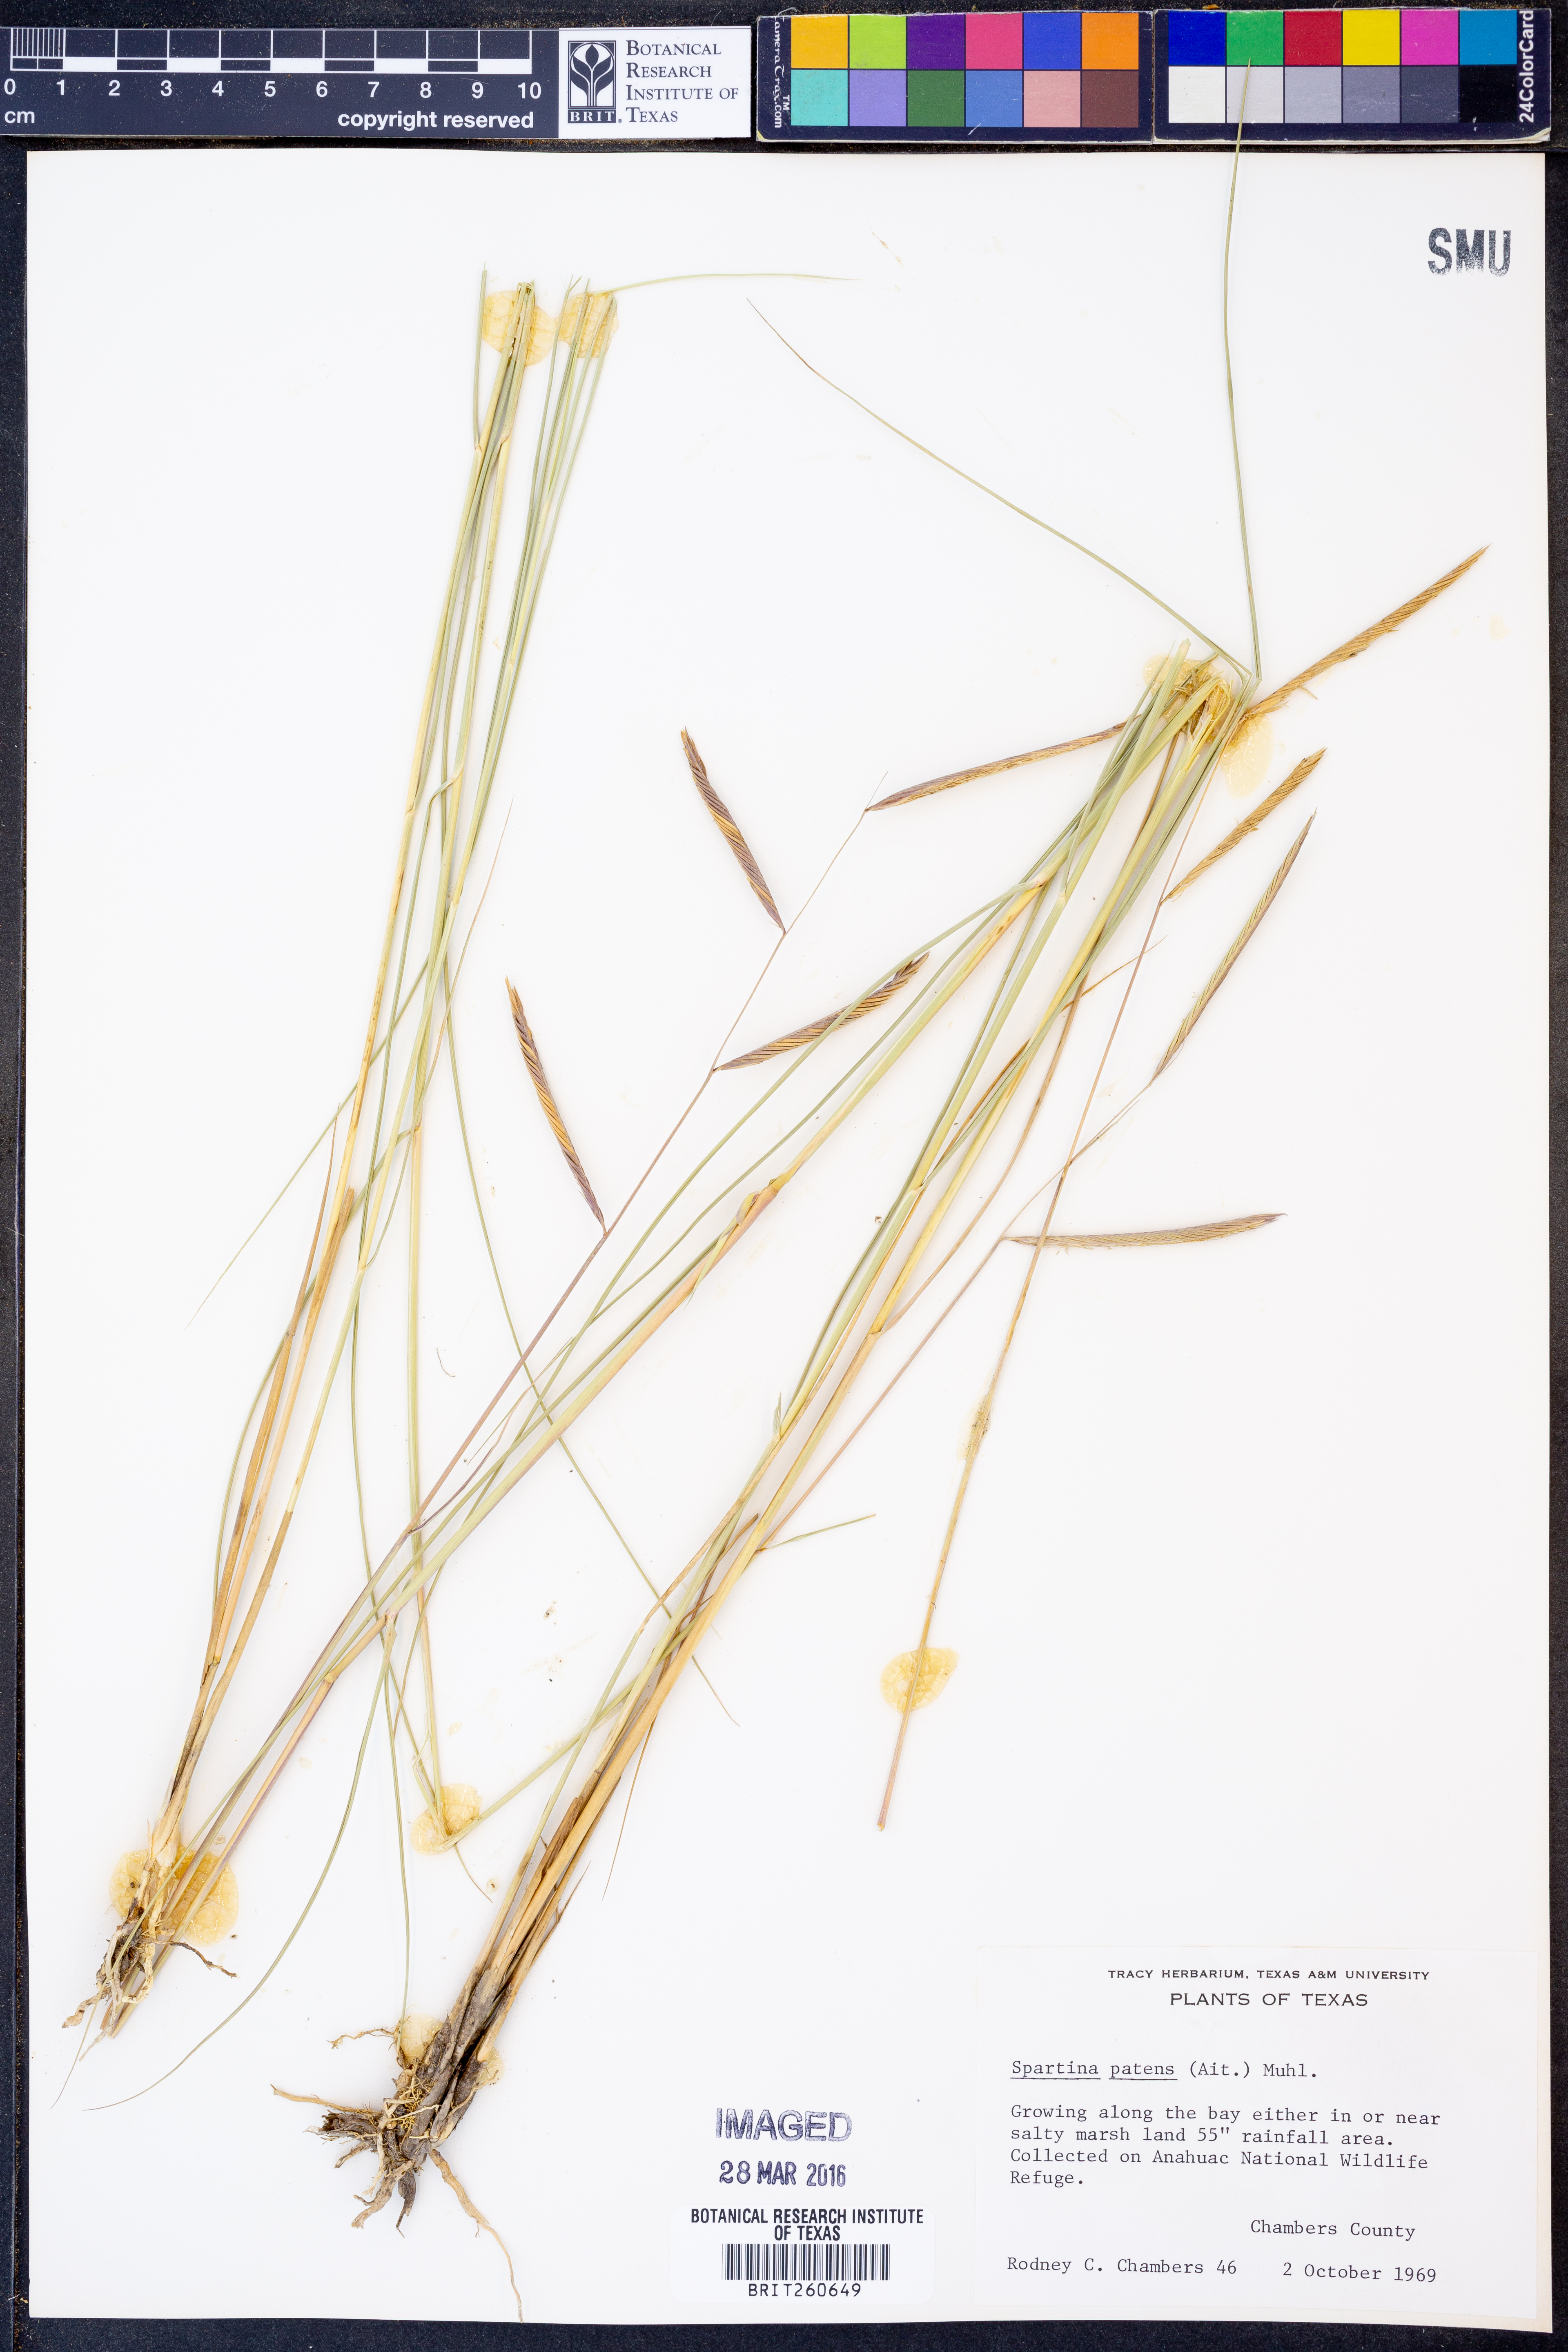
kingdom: Plantae
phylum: Tracheophyta
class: Liliopsida
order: Poales
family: Poaceae
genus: Sporobolus
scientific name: Sporobolus pumilus
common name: Highwater grass
